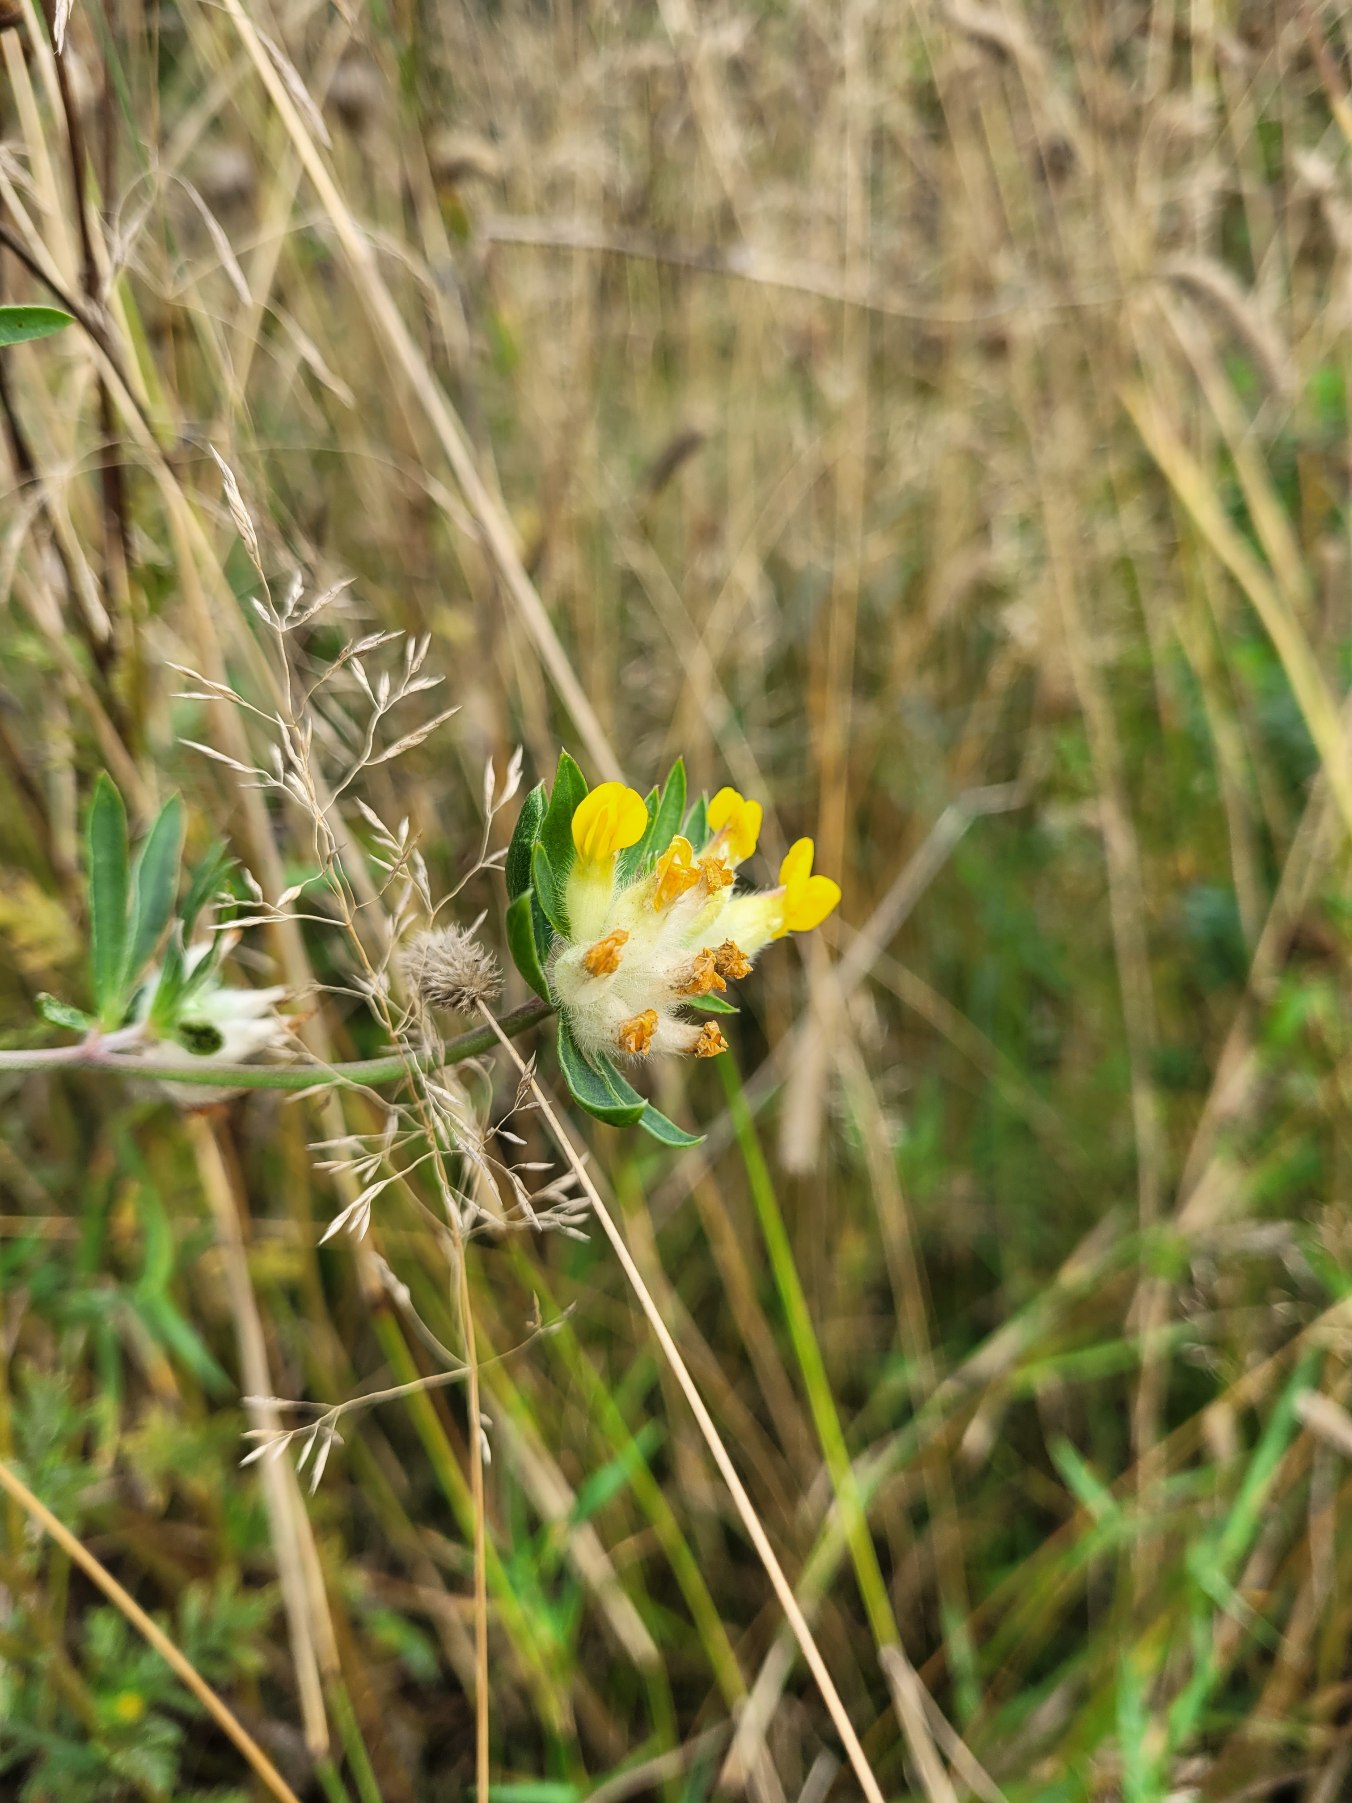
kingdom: Plantae
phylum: Tracheophyta
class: Magnoliopsida
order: Fabales
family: Fabaceae
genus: Anthyllis
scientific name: Anthyllis vulneraria
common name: Rundbælg
